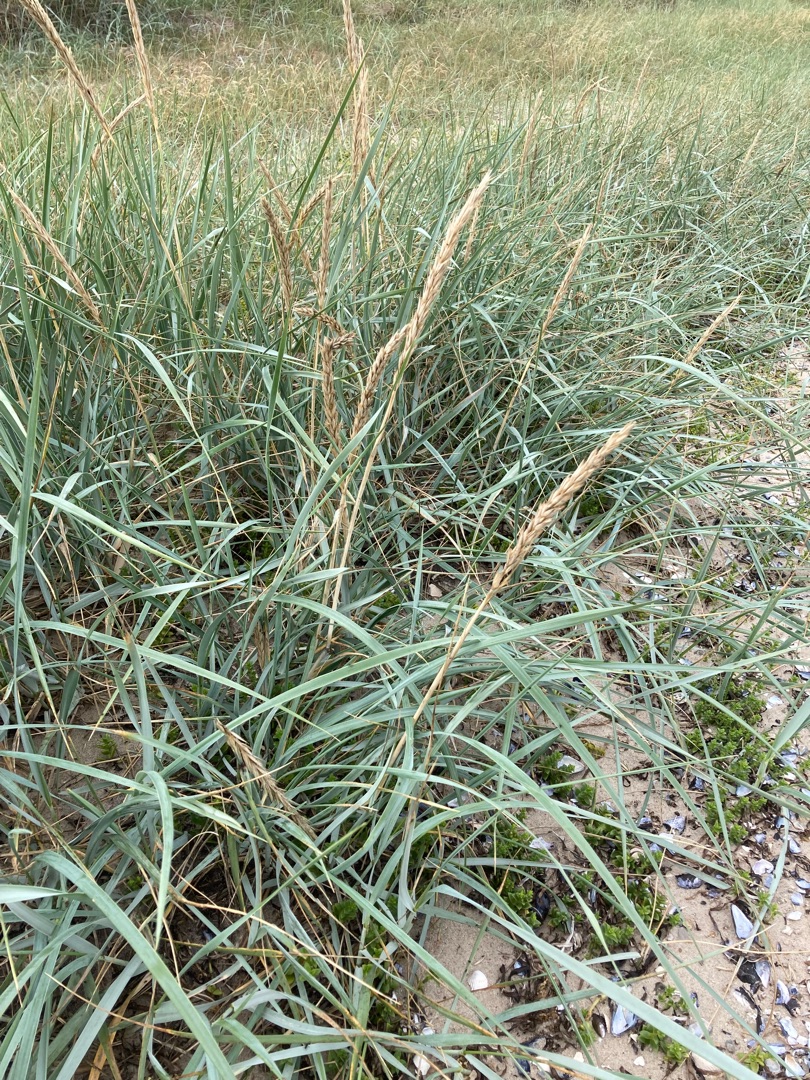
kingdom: Plantae
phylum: Tracheophyta
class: Liliopsida
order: Poales
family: Poaceae
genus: Leymus
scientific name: Leymus arenarius
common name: Marehalm
